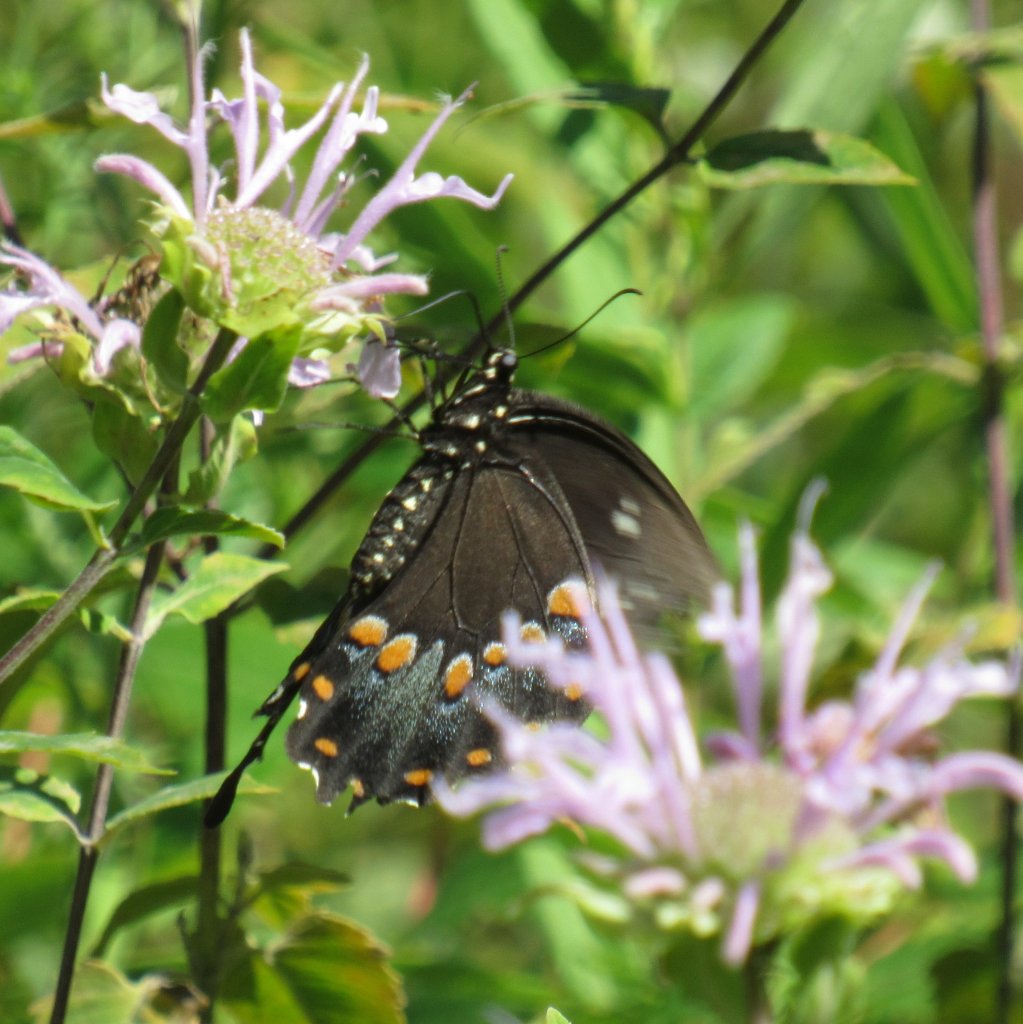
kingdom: Animalia
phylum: Arthropoda
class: Insecta
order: Lepidoptera
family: Papilionidae
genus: Pterourus
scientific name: Pterourus troilus
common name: Spicebush Swallowtail
